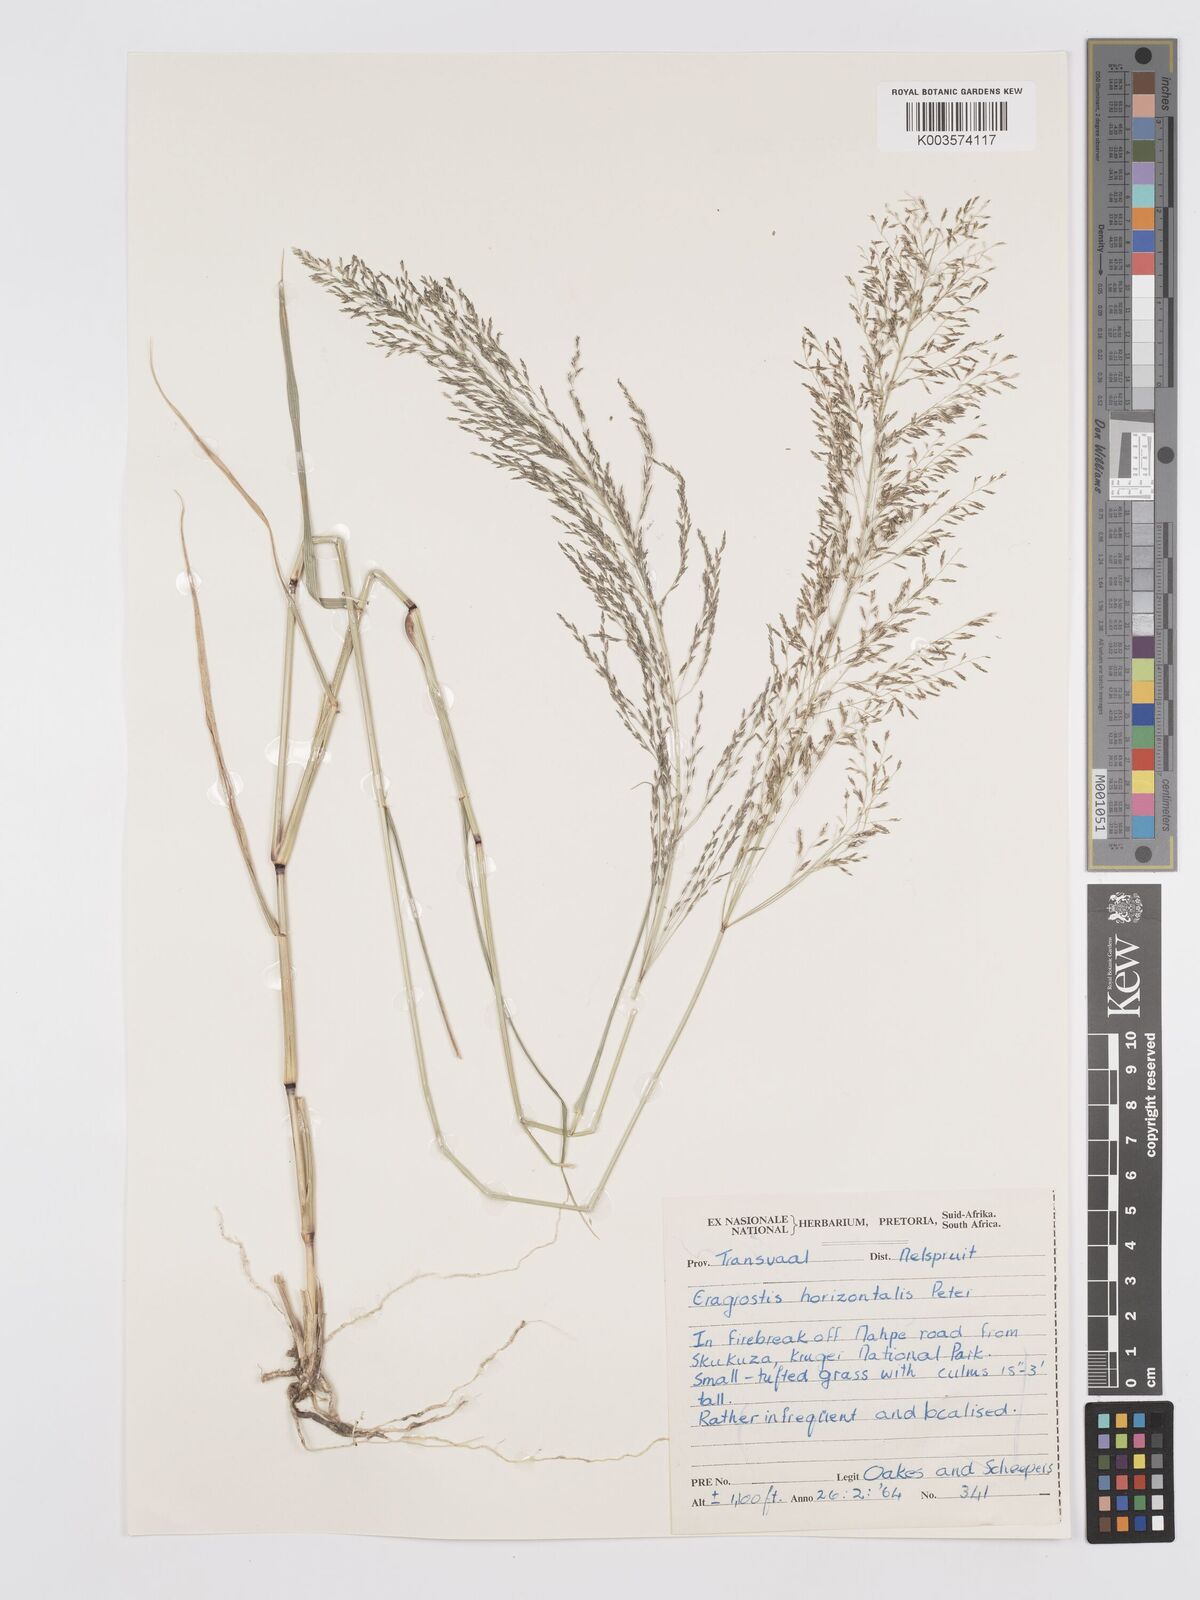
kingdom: Plantae
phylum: Tracheophyta
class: Liliopsida
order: Poales
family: Poaceae
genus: Eragrostis
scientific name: Eragrostis cylindriflora
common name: Cylinderflower lovegrass
